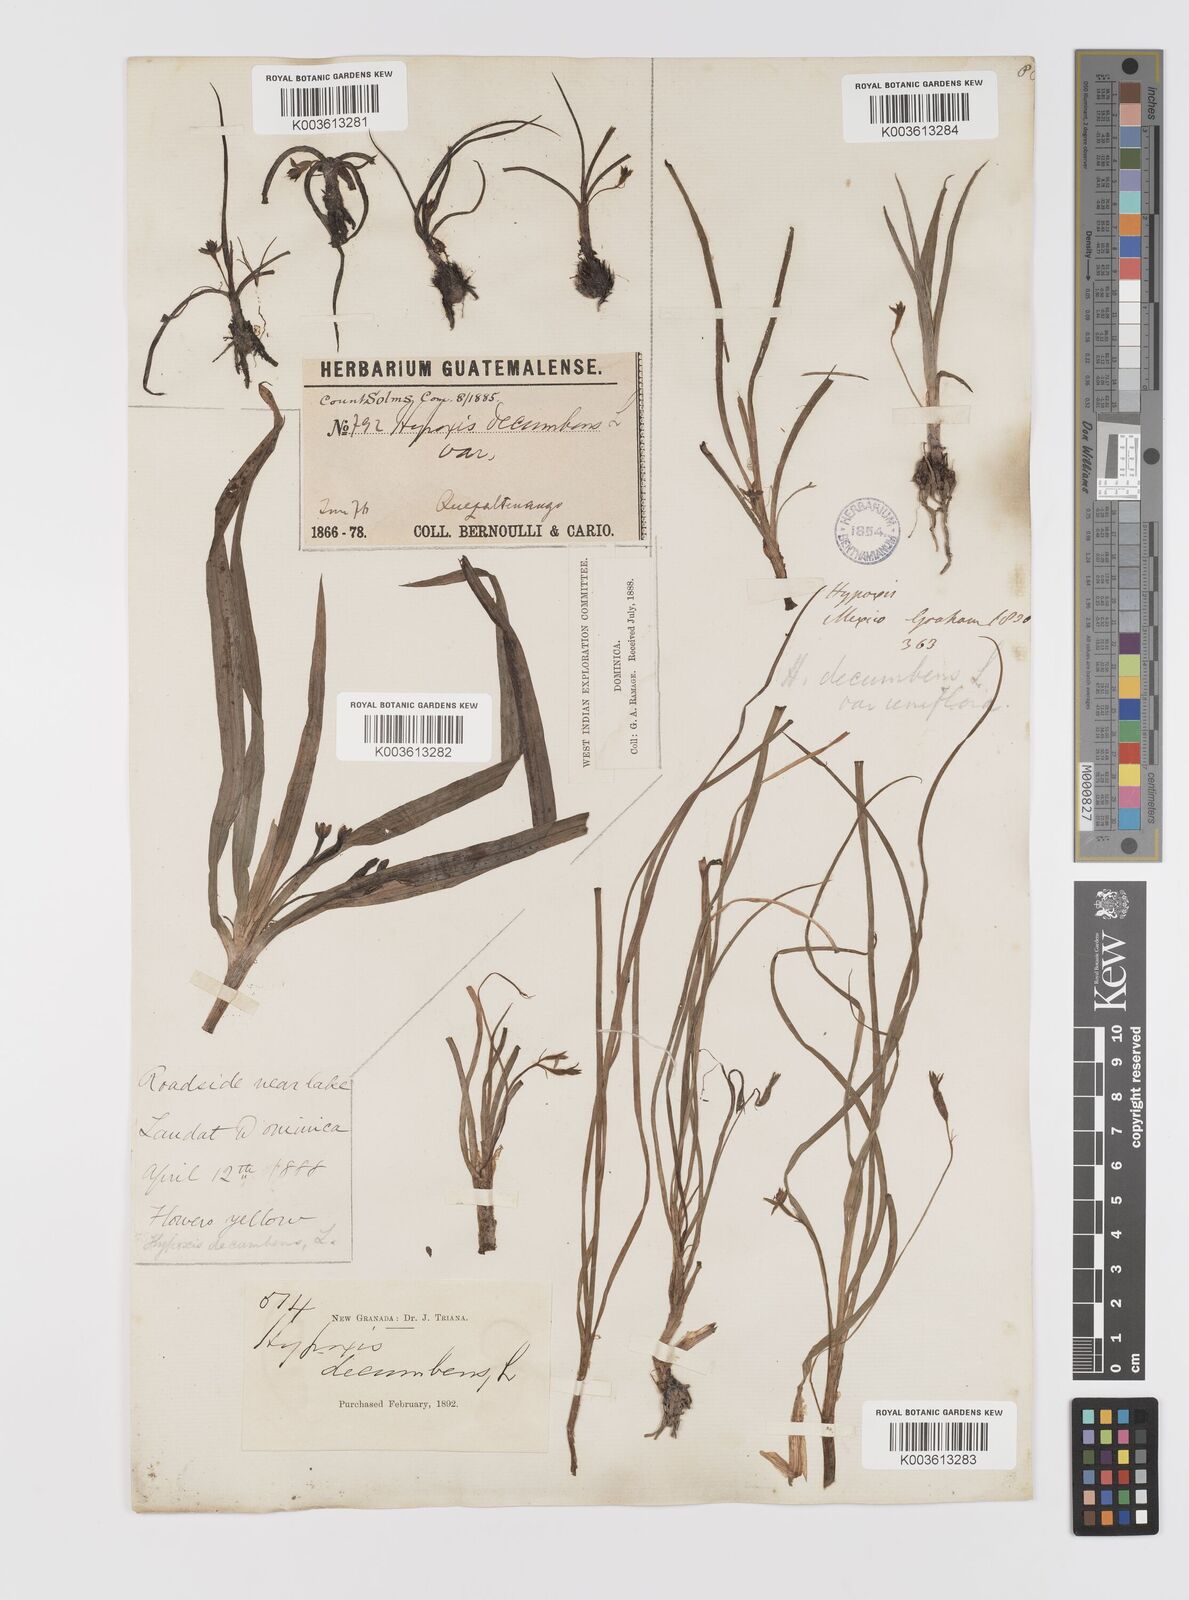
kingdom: Plantae
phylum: Tracheophyta
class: Liliopsida
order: Asparagales
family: Hypoxidaceae
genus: Hypoxis
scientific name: Hypoxis decumbens
